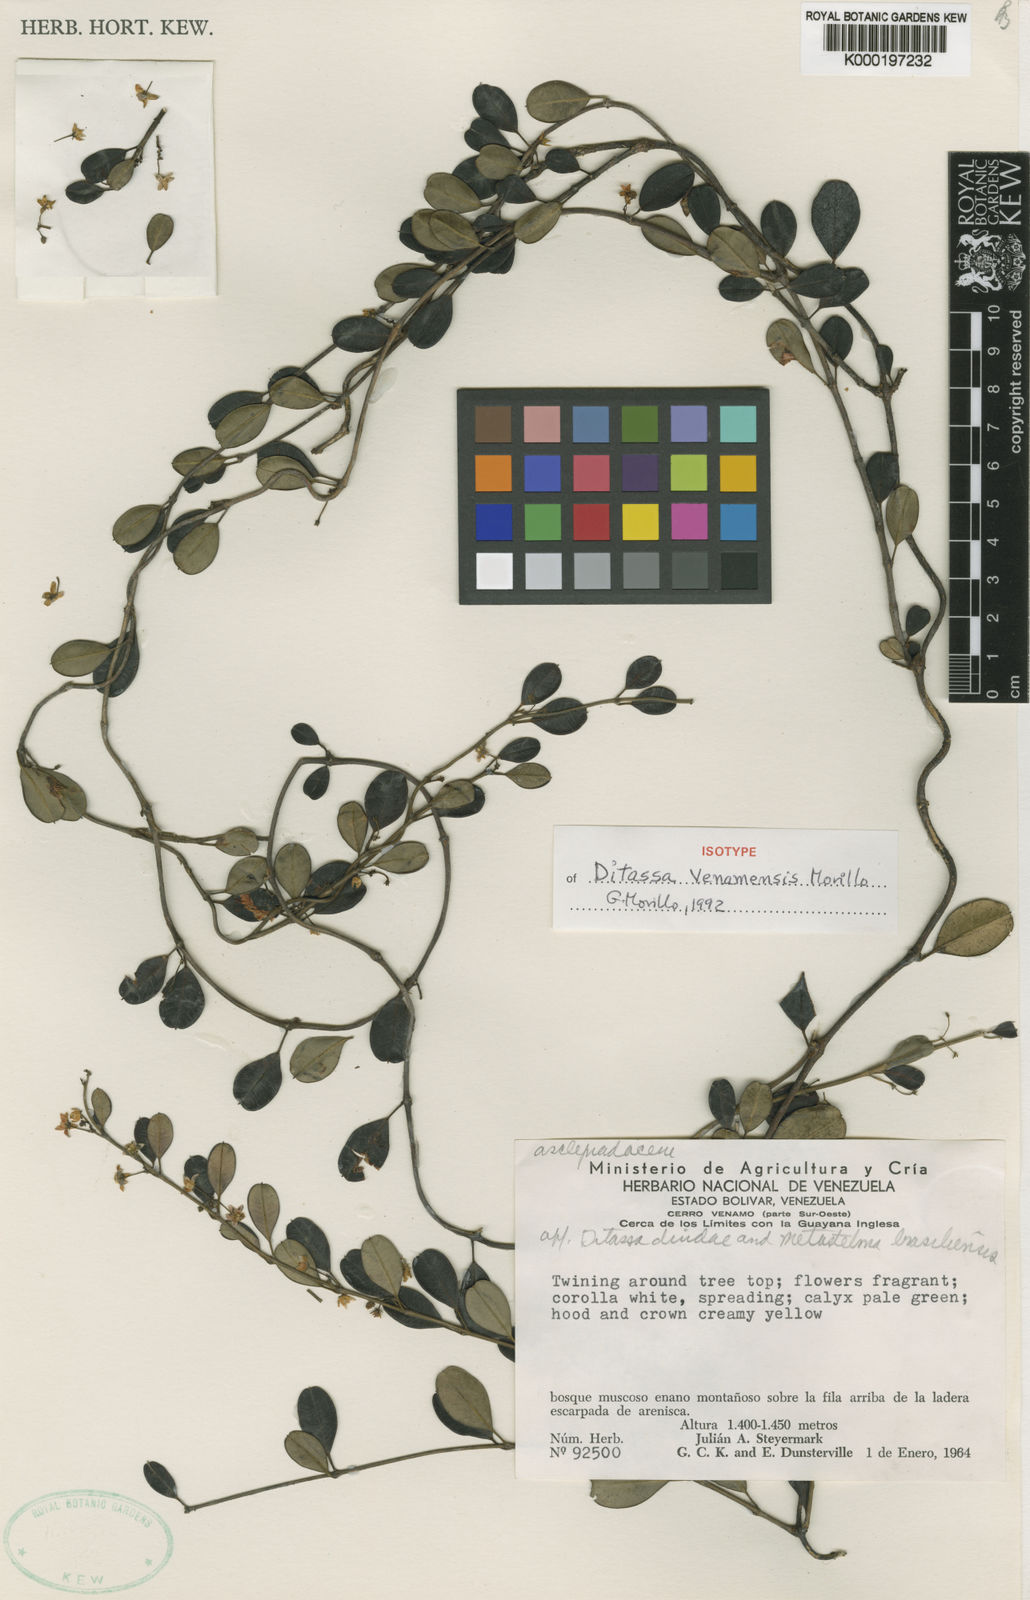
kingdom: Plantae
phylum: Tracheophyta
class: Magnoliopsida
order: Gentianales
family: Apocynaceae
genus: Ditassa
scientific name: Ditassa venamensis
